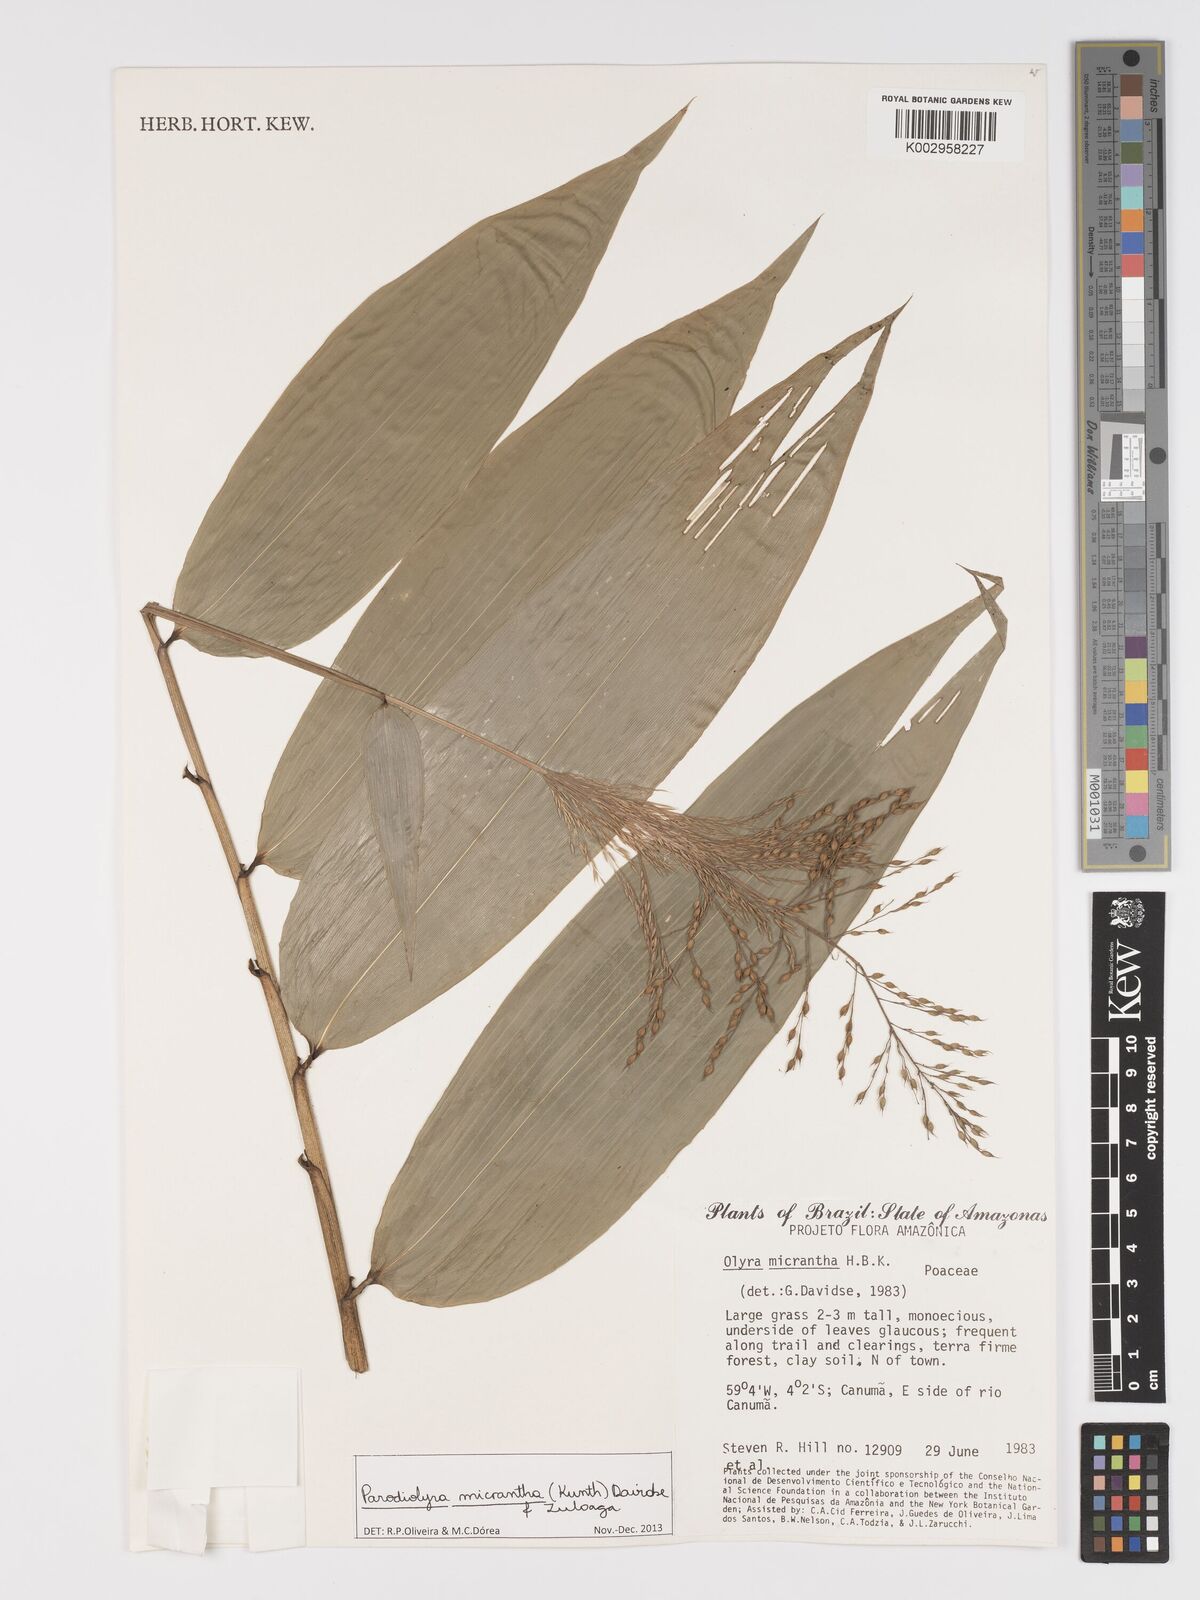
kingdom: Plantae
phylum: Tracheophyta
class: Liliopsida
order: Poales
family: Poaceae
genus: Taquara
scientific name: Taquara micrantha
